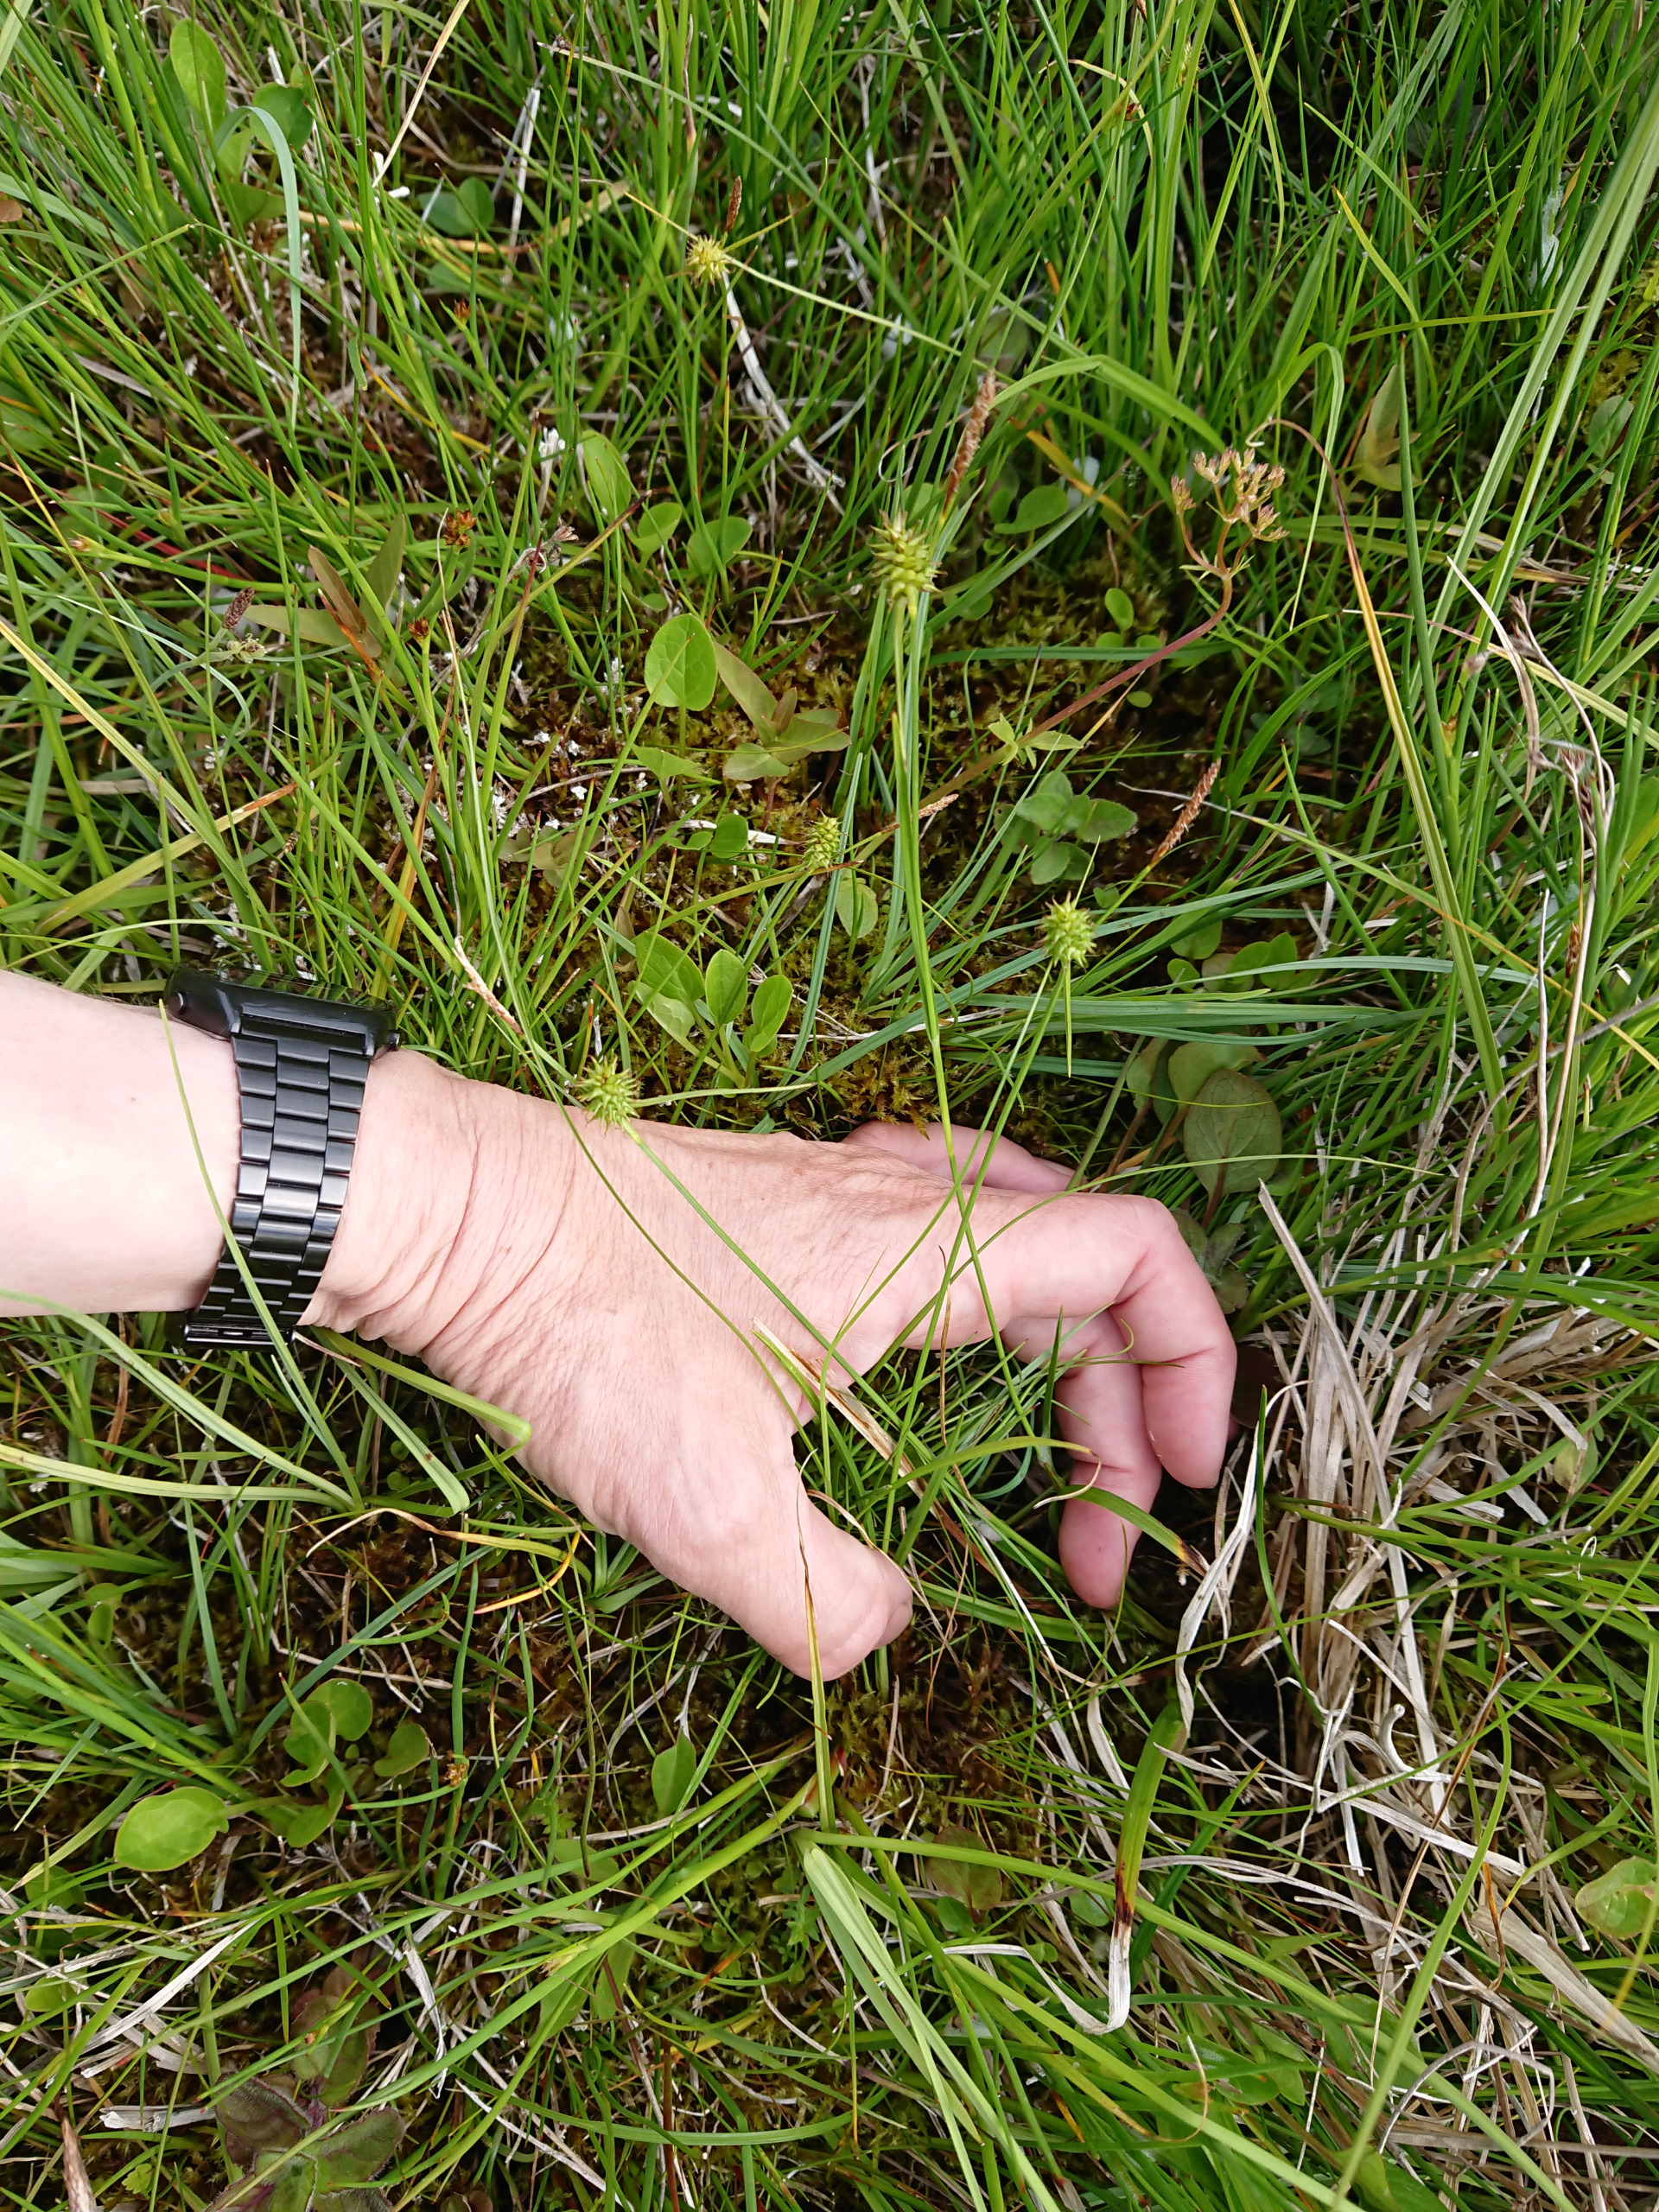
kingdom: Plantae
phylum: Tracheophyta
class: Liliopsida
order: Poales
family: Cyperaceae
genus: Carex
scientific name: Carex lepidocarpa
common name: Krognæb-star
